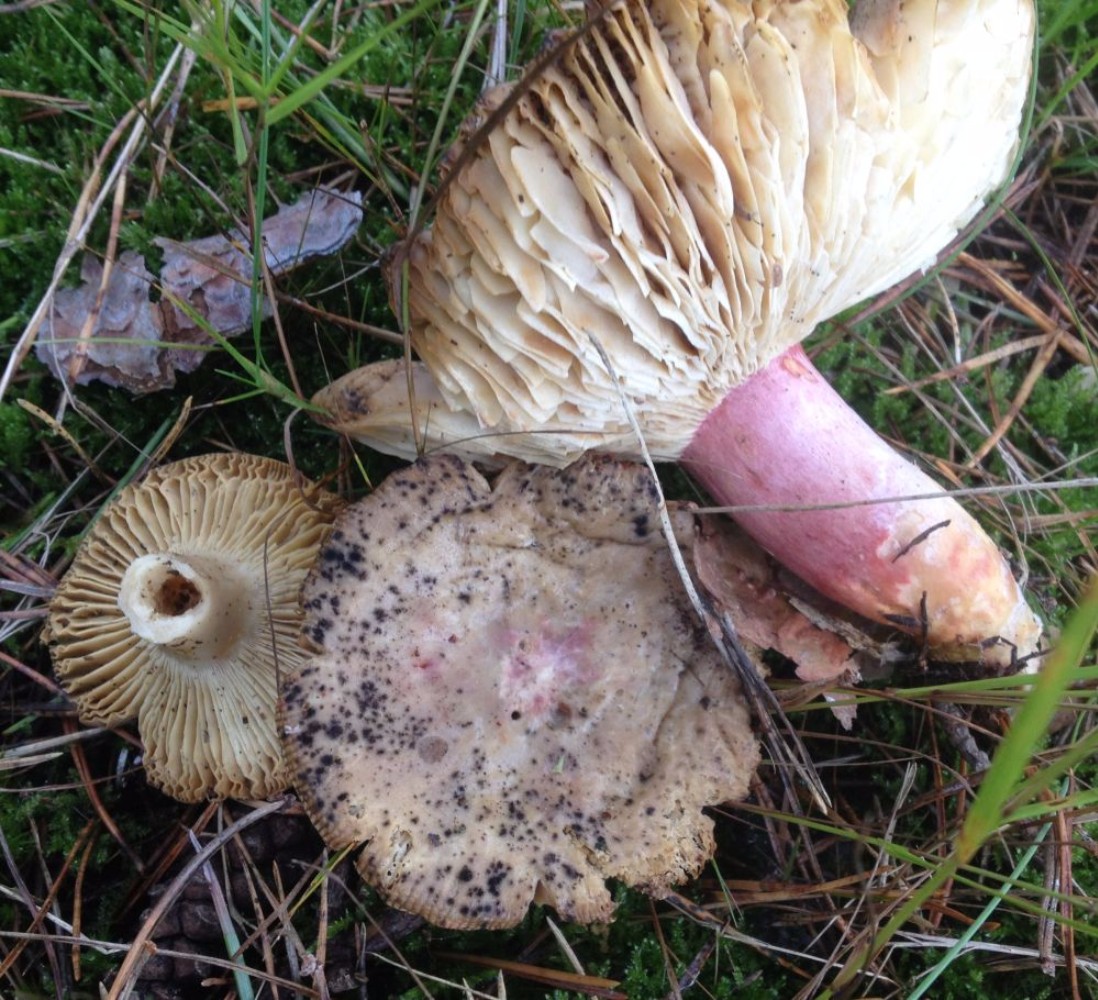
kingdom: Fungi
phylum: Ascomycota
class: Dothideomycetes
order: Capnodiales
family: Cladosporiaceae
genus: Cladosporium
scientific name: Cladosporium
